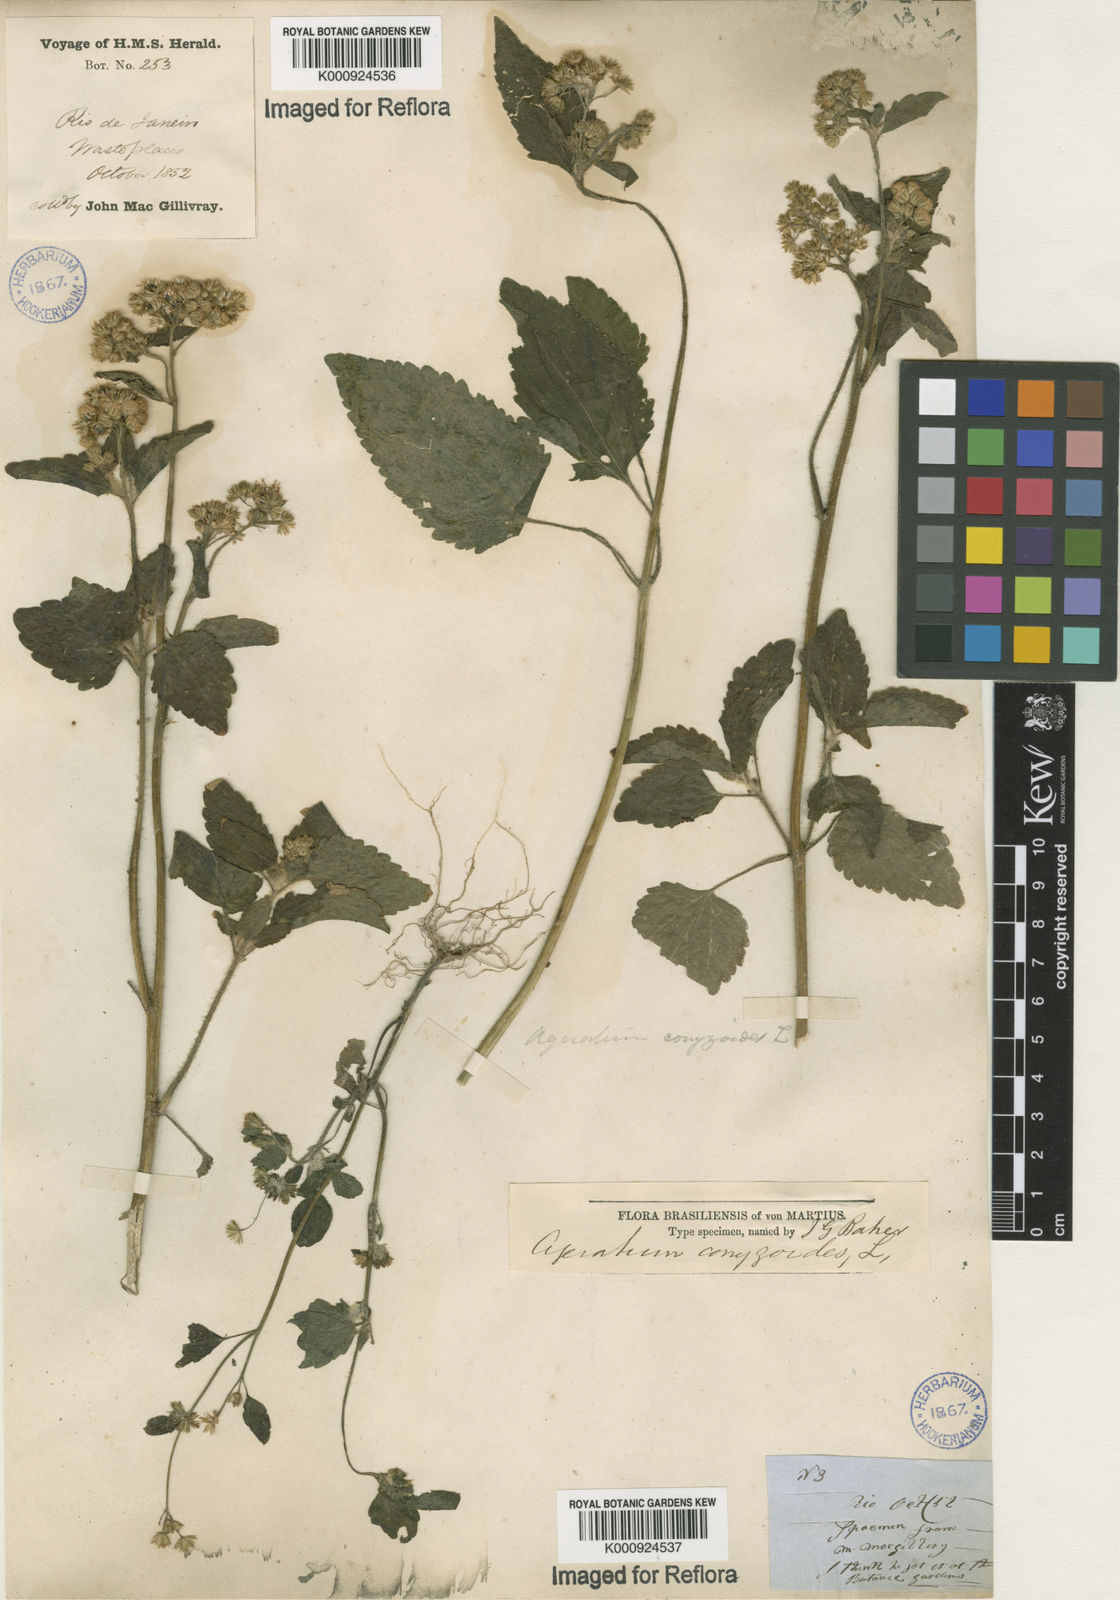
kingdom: Plantae
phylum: Tracheophyta
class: Magnoliopsida
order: Asterales
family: Asteraceae
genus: Ageratum
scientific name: Ageratum conyzoides
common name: Tropical whiteweed
